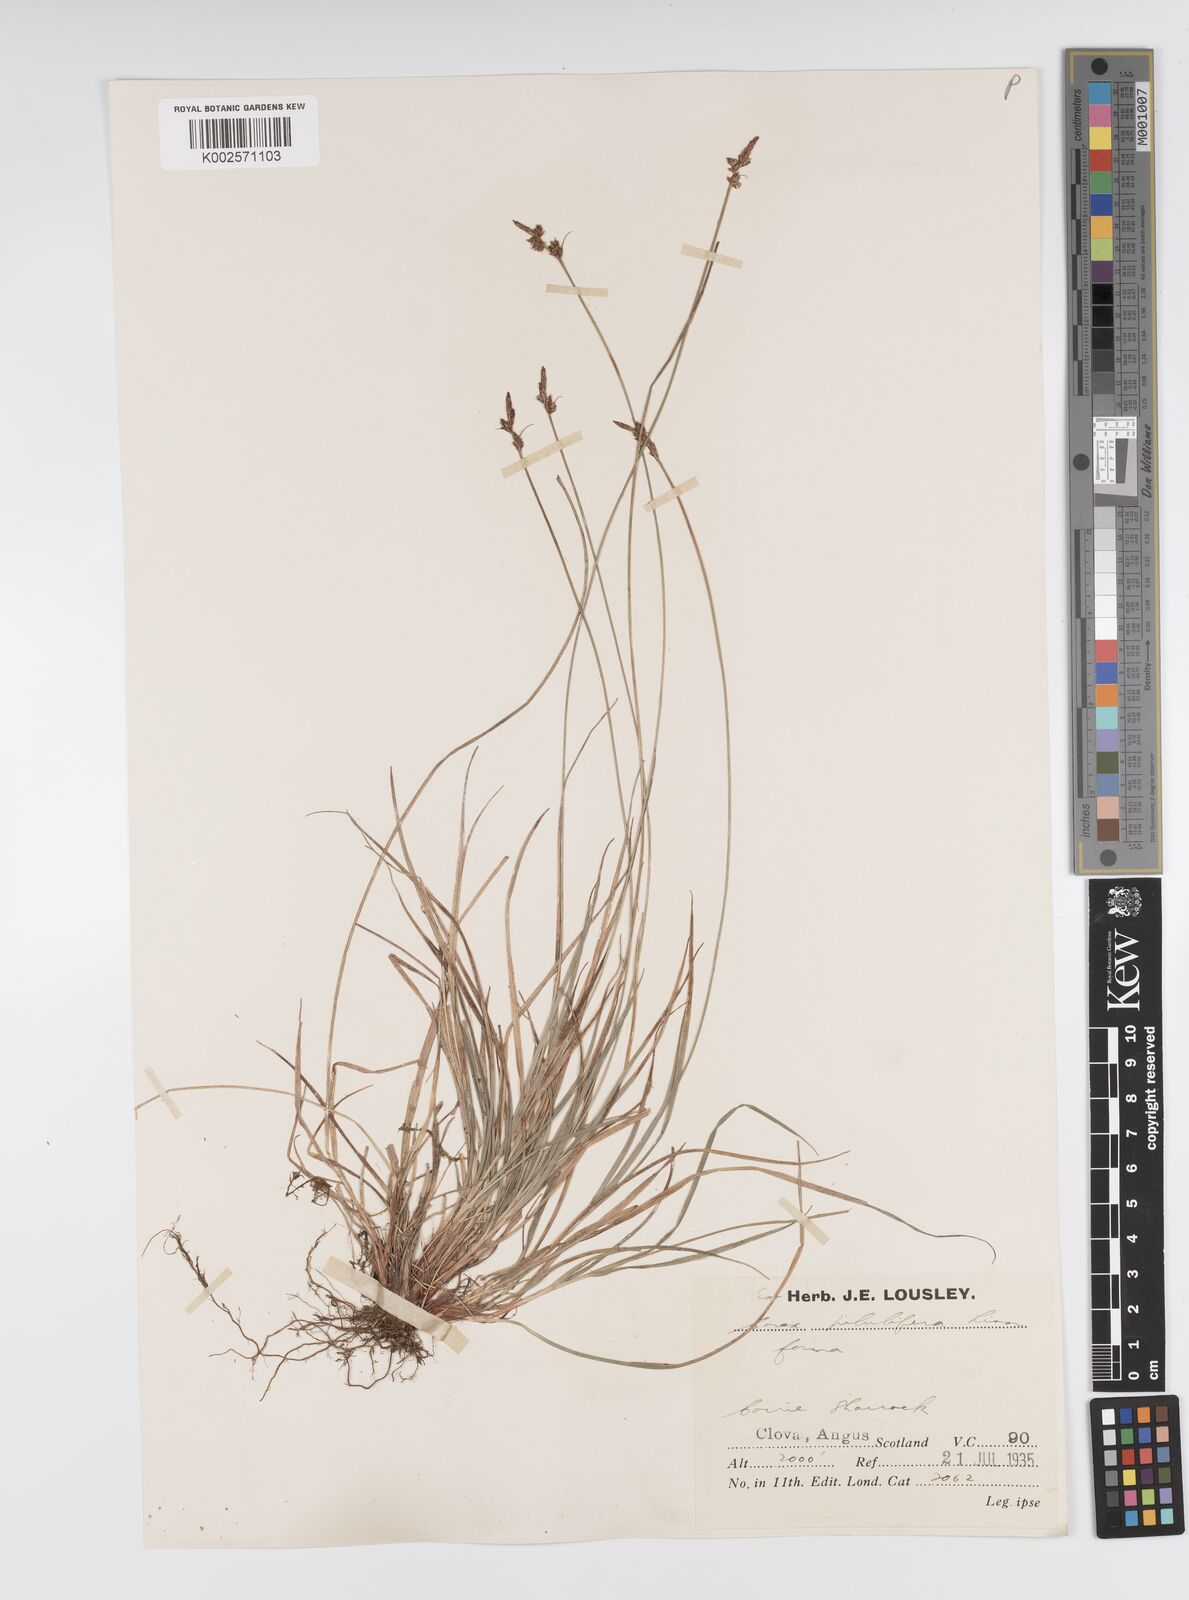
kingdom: Plantae
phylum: Tracheophyta
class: Liliopsida
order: Poales
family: Cyperaceae
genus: Carex
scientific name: Carex pilulifera
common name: Pill sedge
